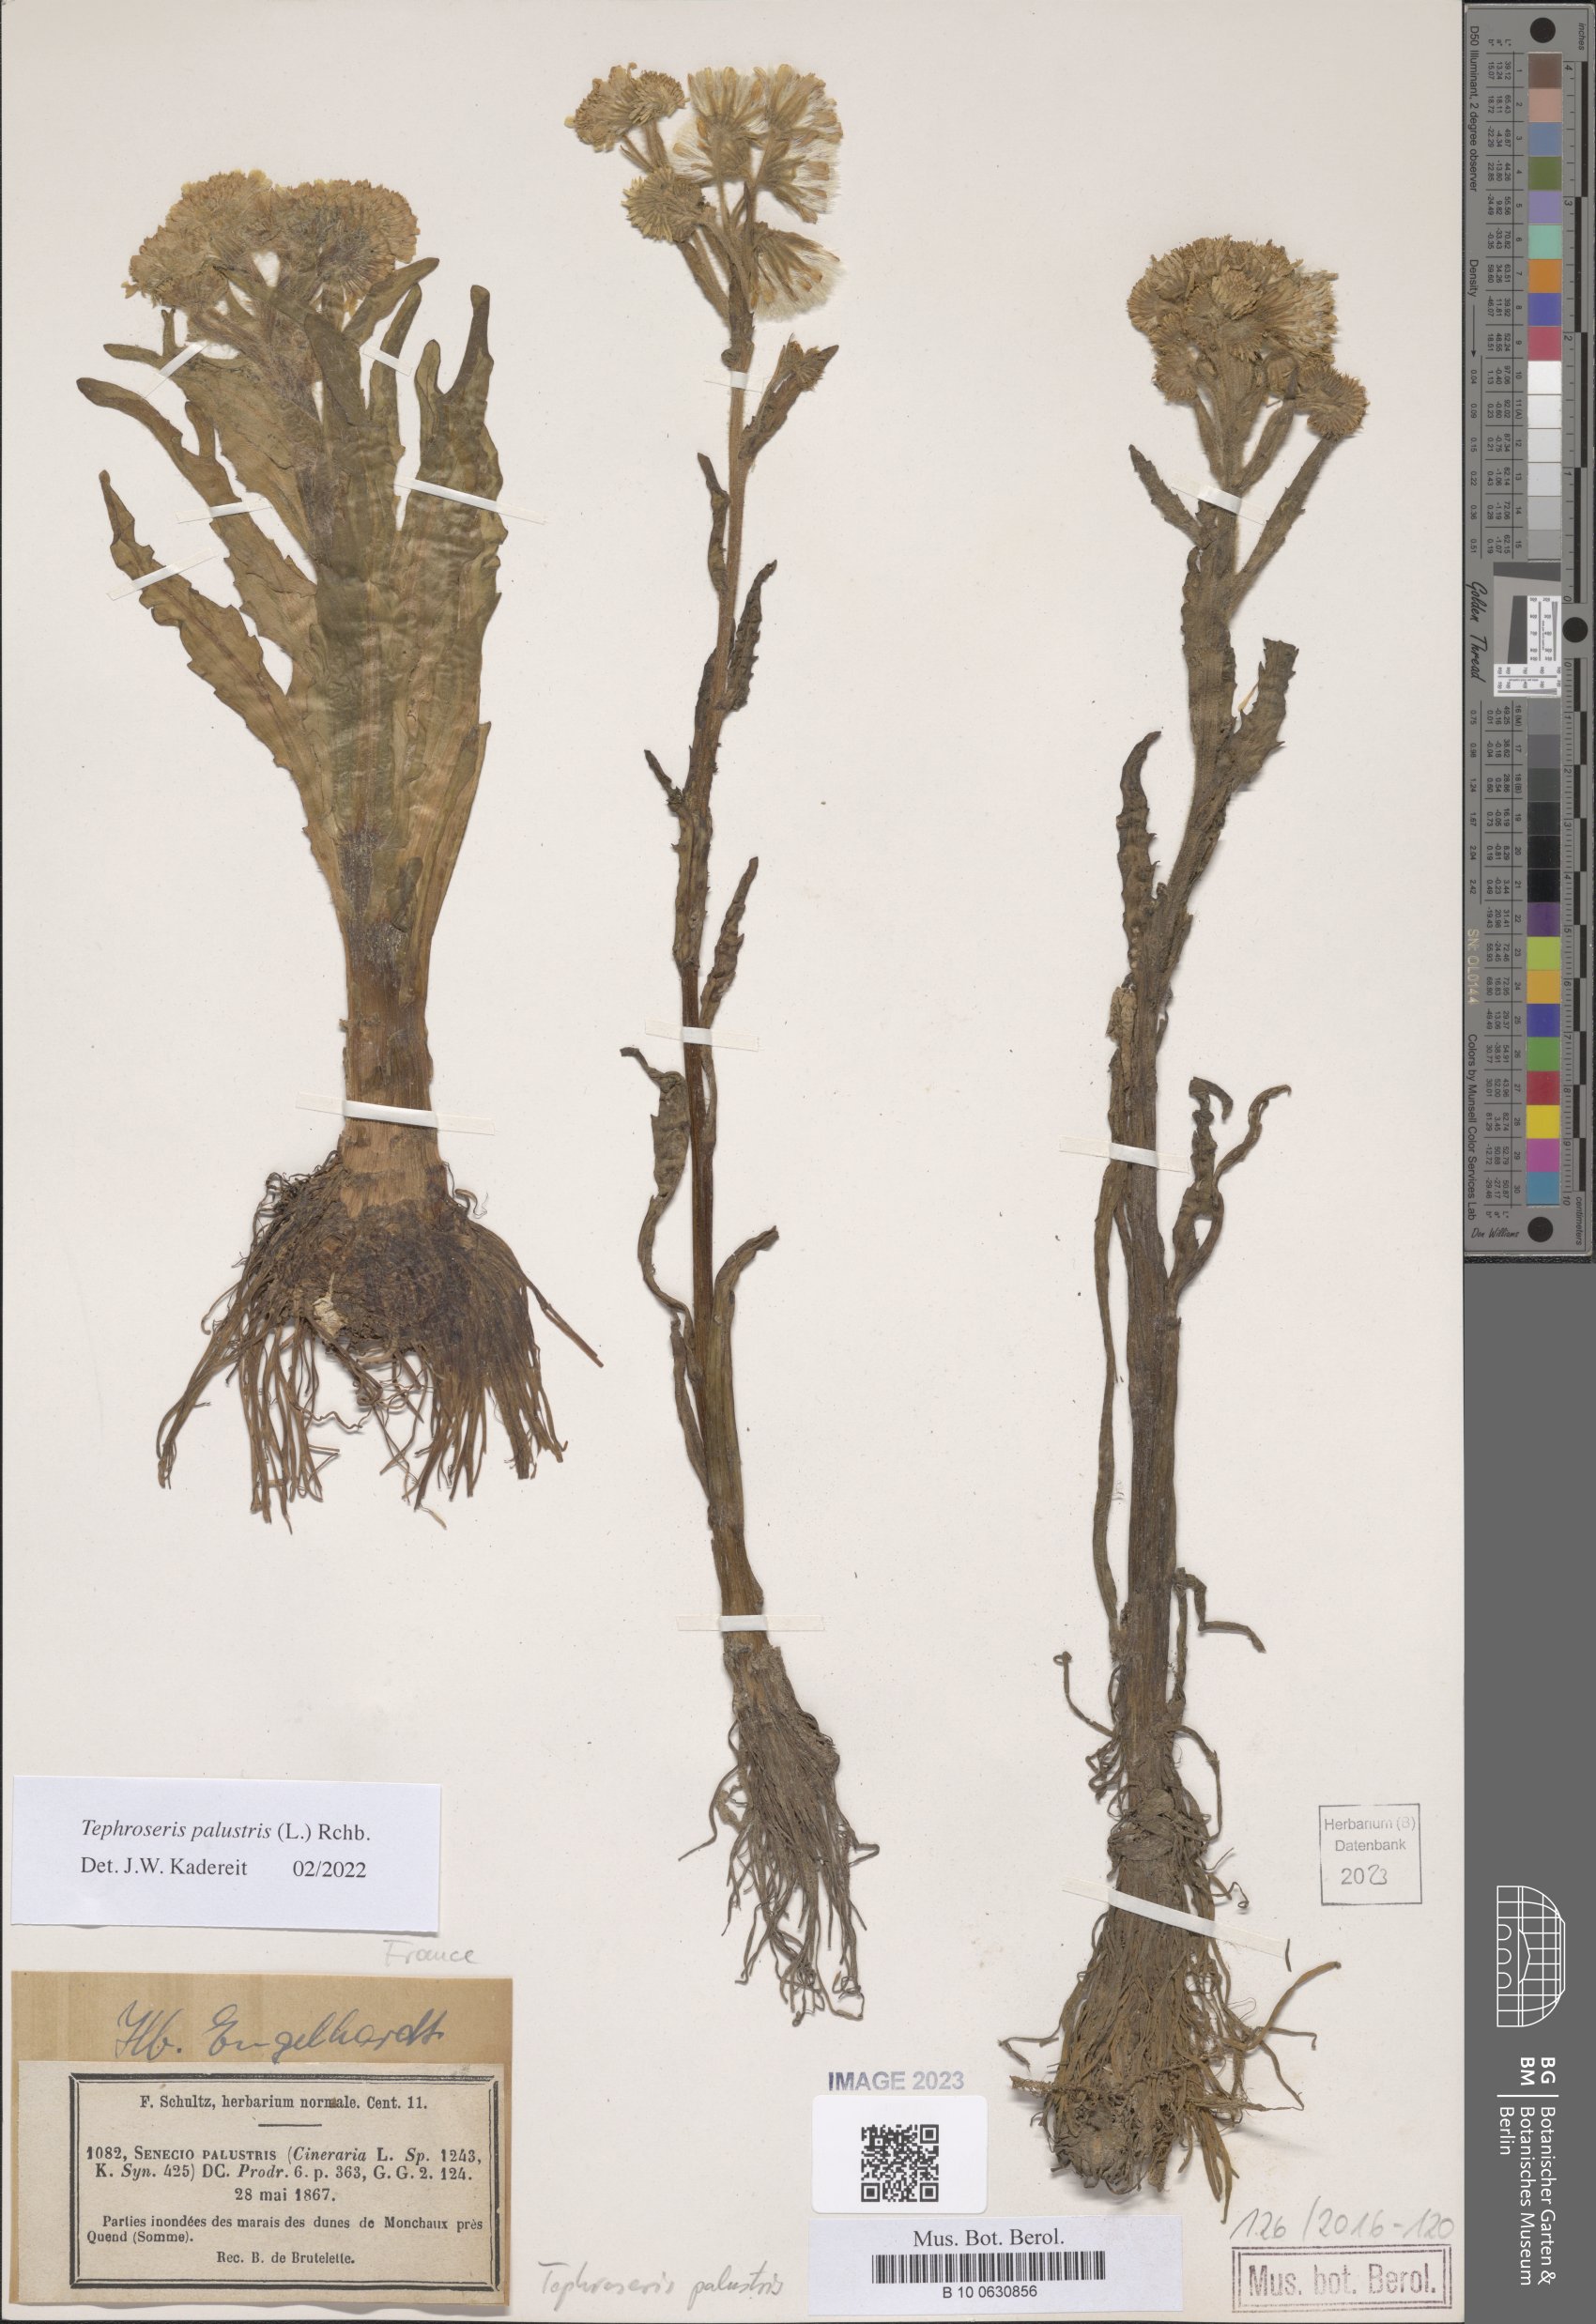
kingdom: Plantae
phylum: Tracheophyta
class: Magnoliopsida
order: Asterales
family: Asteraceae
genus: Tephroseris
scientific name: Tephroseris palustris
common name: Marsh fleawort
